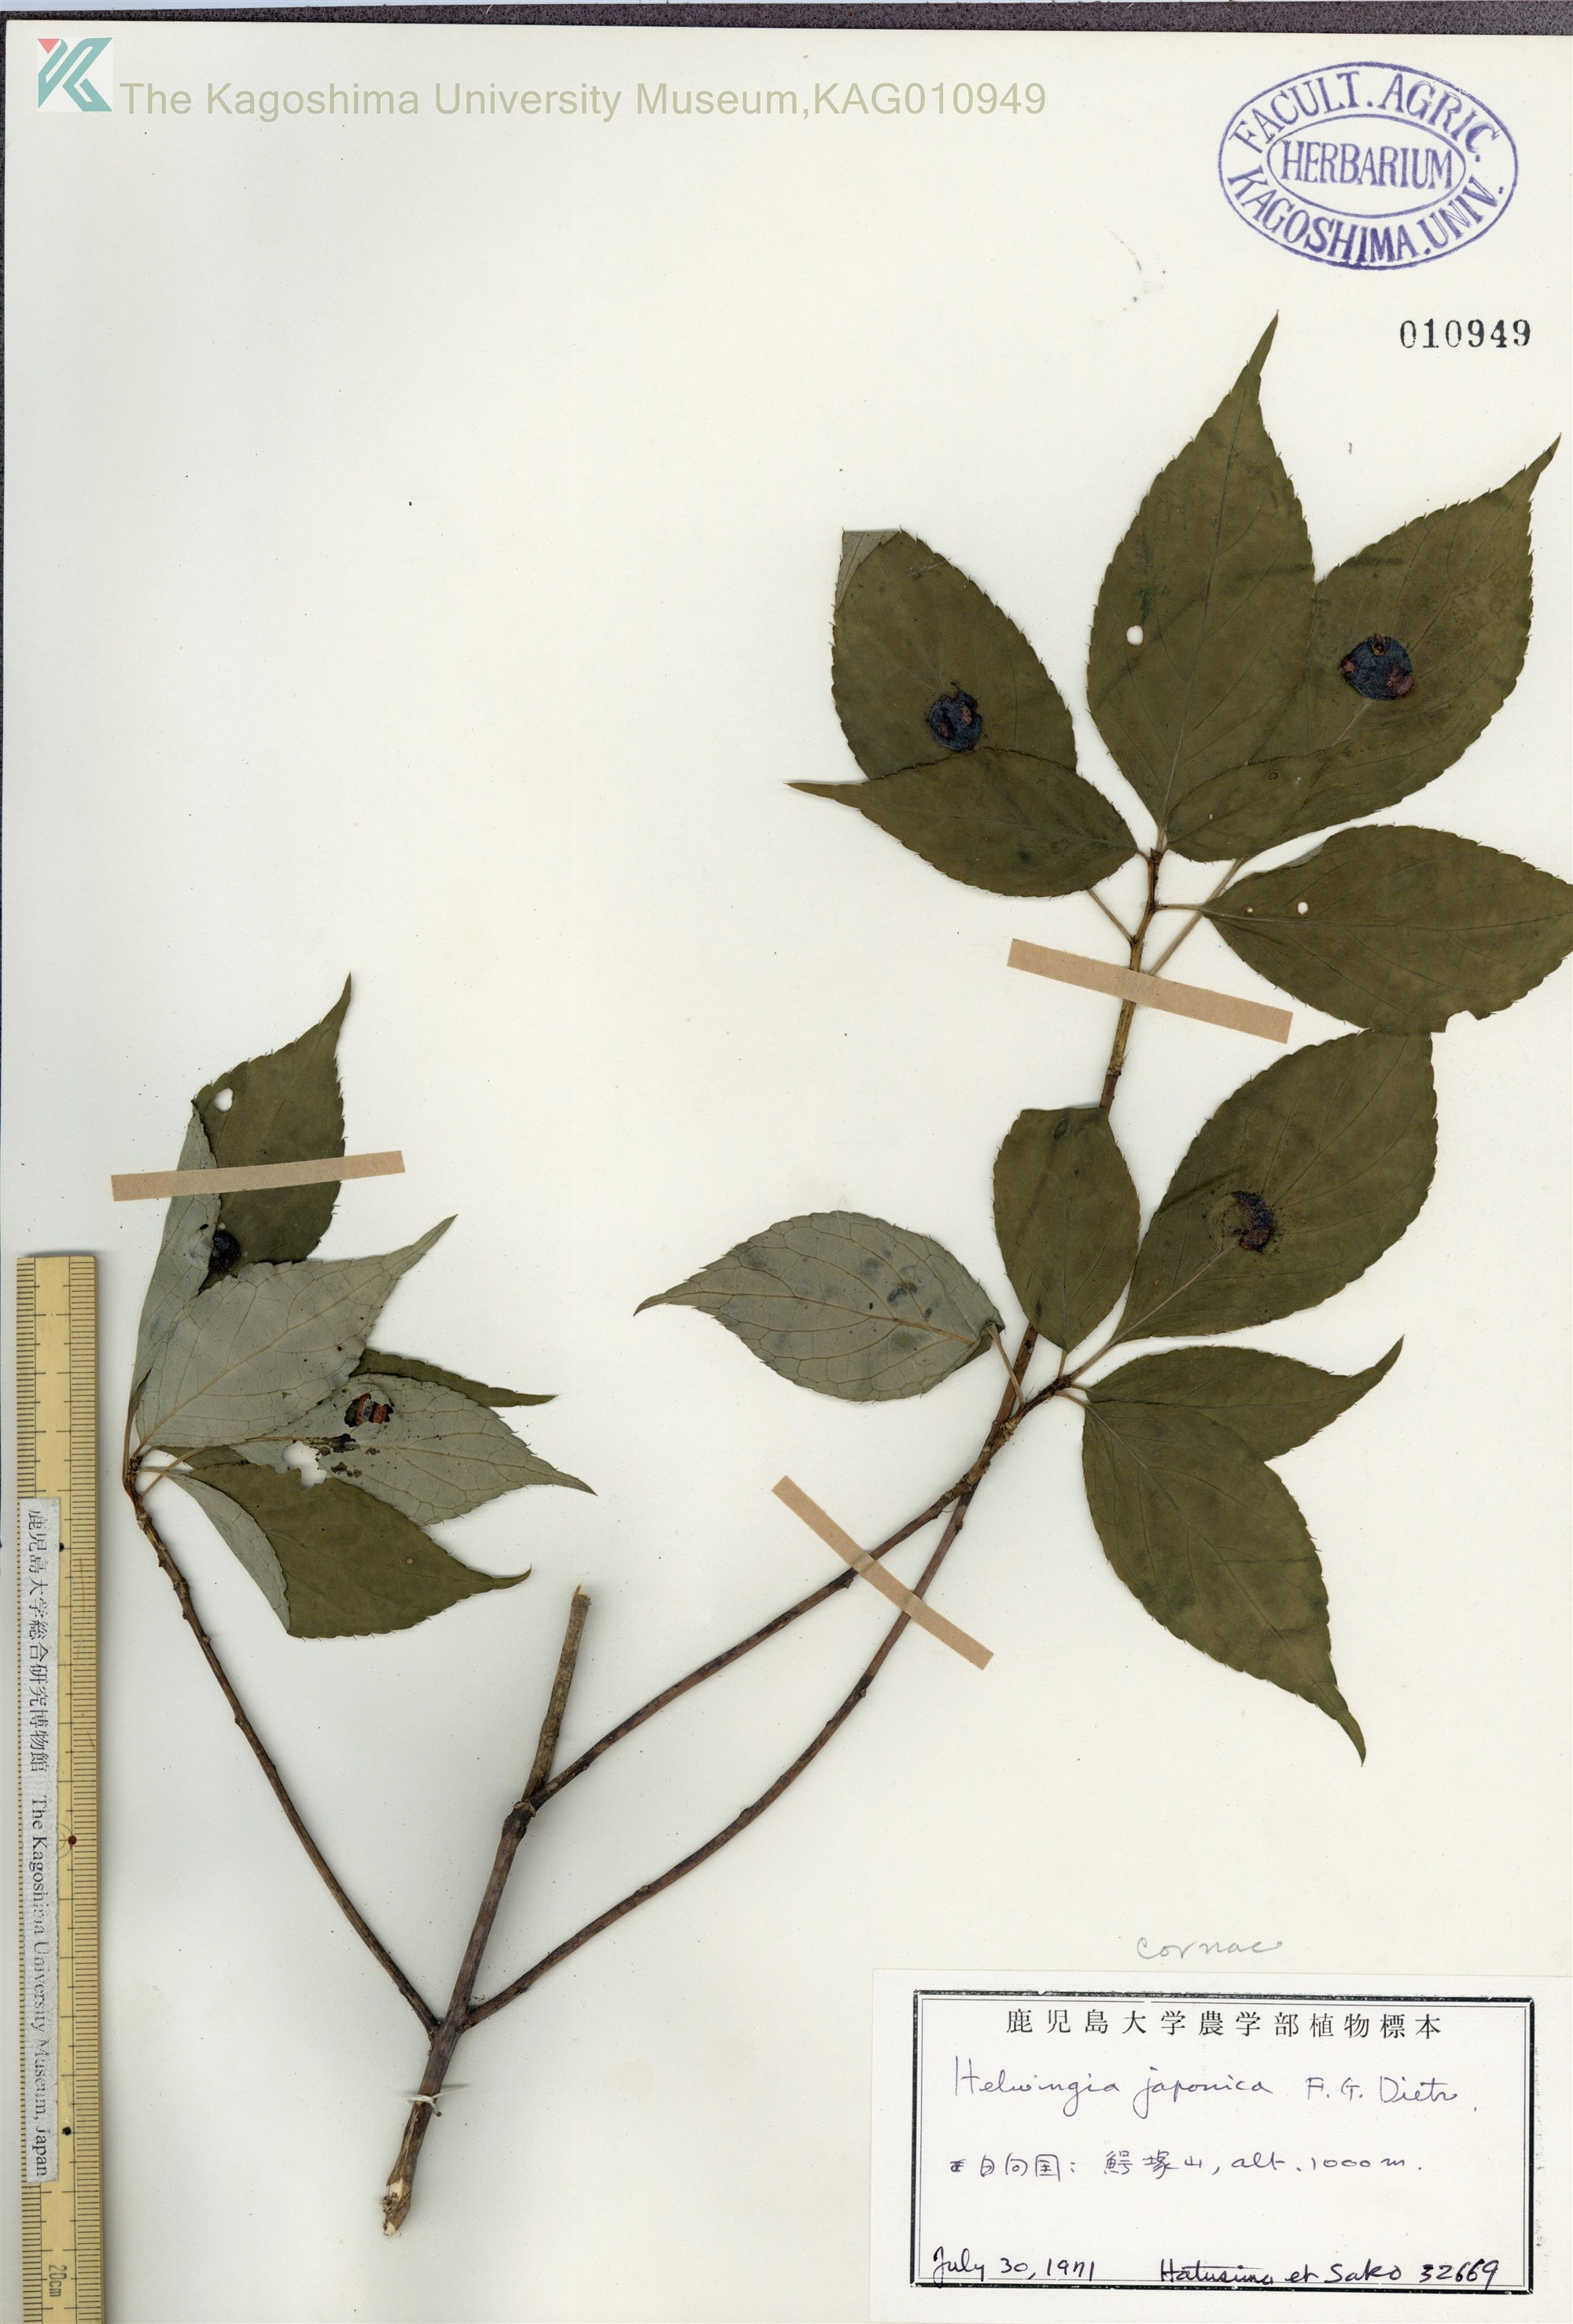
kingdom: Plantae
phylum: Tracheophyta
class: Magnoliopsida
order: Aquifoliales
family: Helwingiaceae
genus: Helwingia
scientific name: Helwingia japonica
